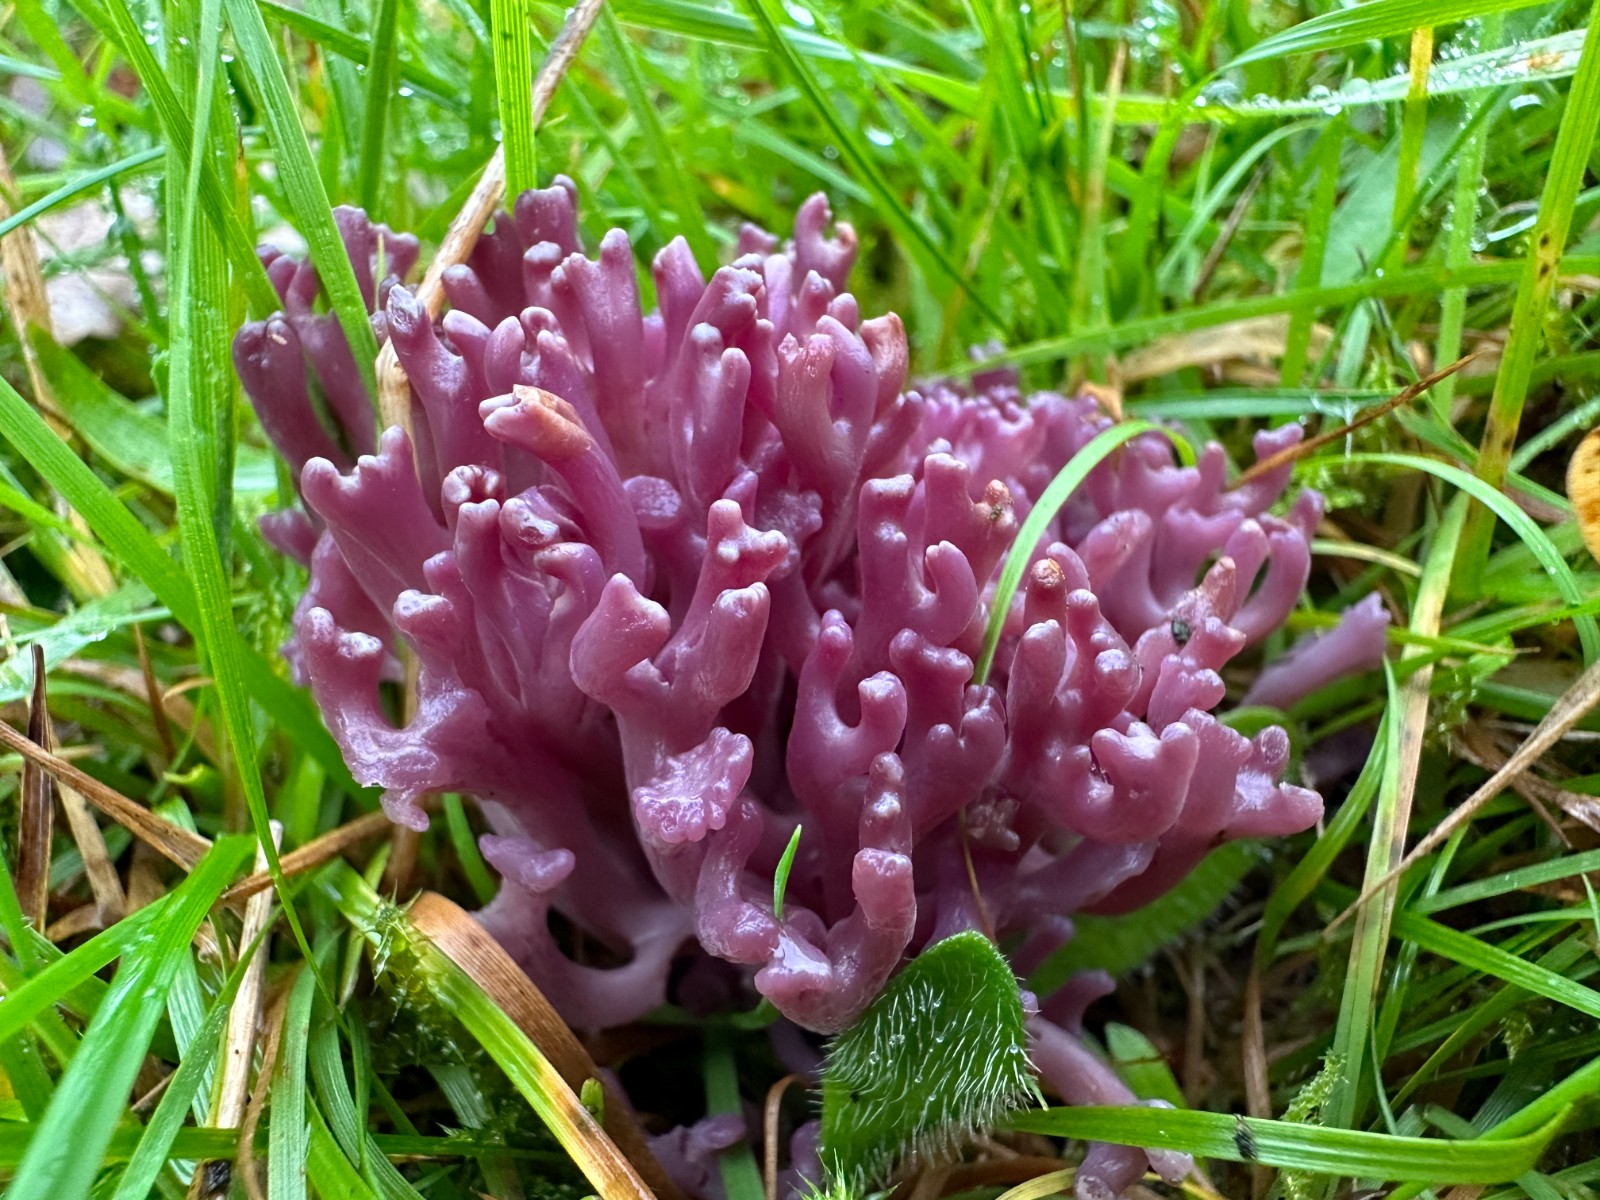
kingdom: Fungi
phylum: Basidiomycota
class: Agaricomycetes
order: Agaricales
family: Clavariaceae
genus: Clavaria
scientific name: Clavaria zollingeri
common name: purpur-køllesvamp
